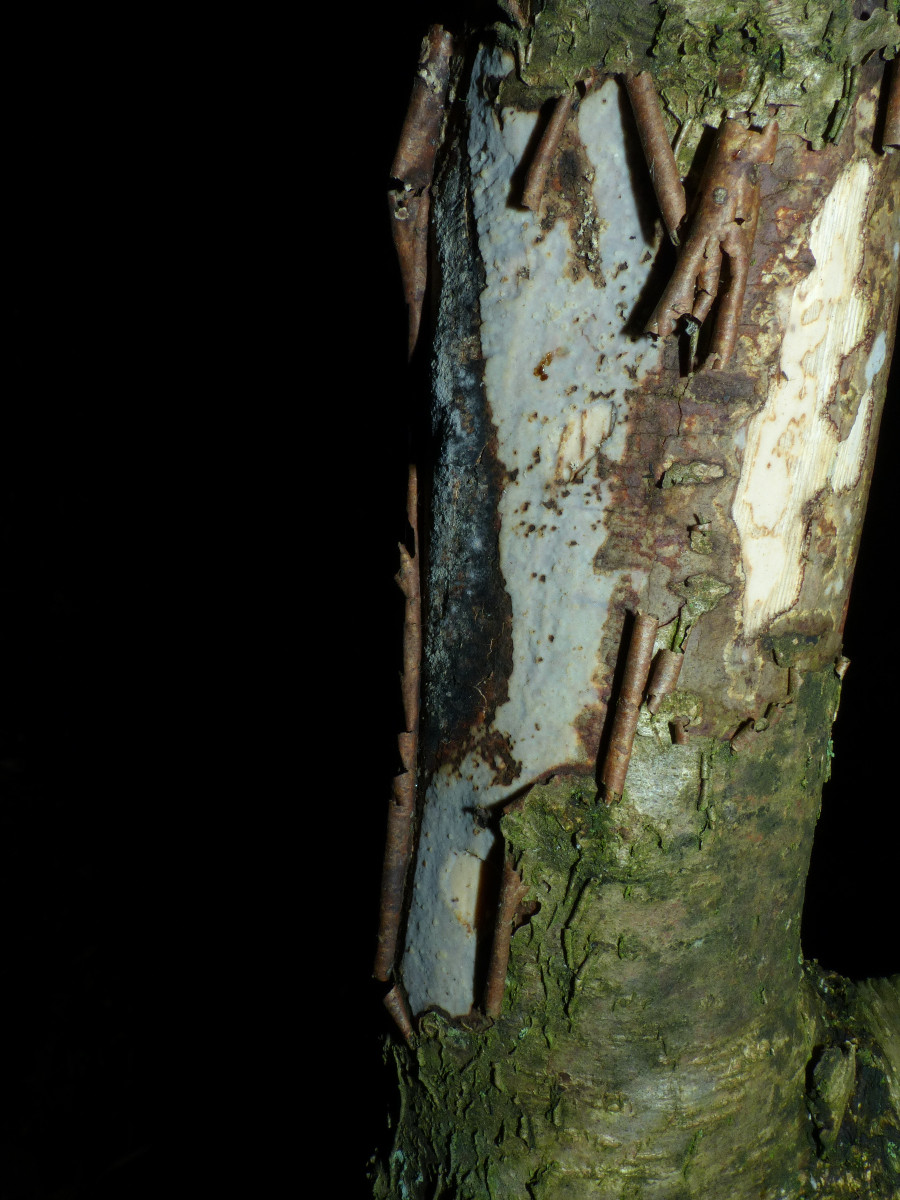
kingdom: Fungi
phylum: Basidiomycota
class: Agaricomycetes
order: Corticiales
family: Vuilleminiaceae
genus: Vuilleminia
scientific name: Vuilleminia coryli
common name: hassel-barksprænger
